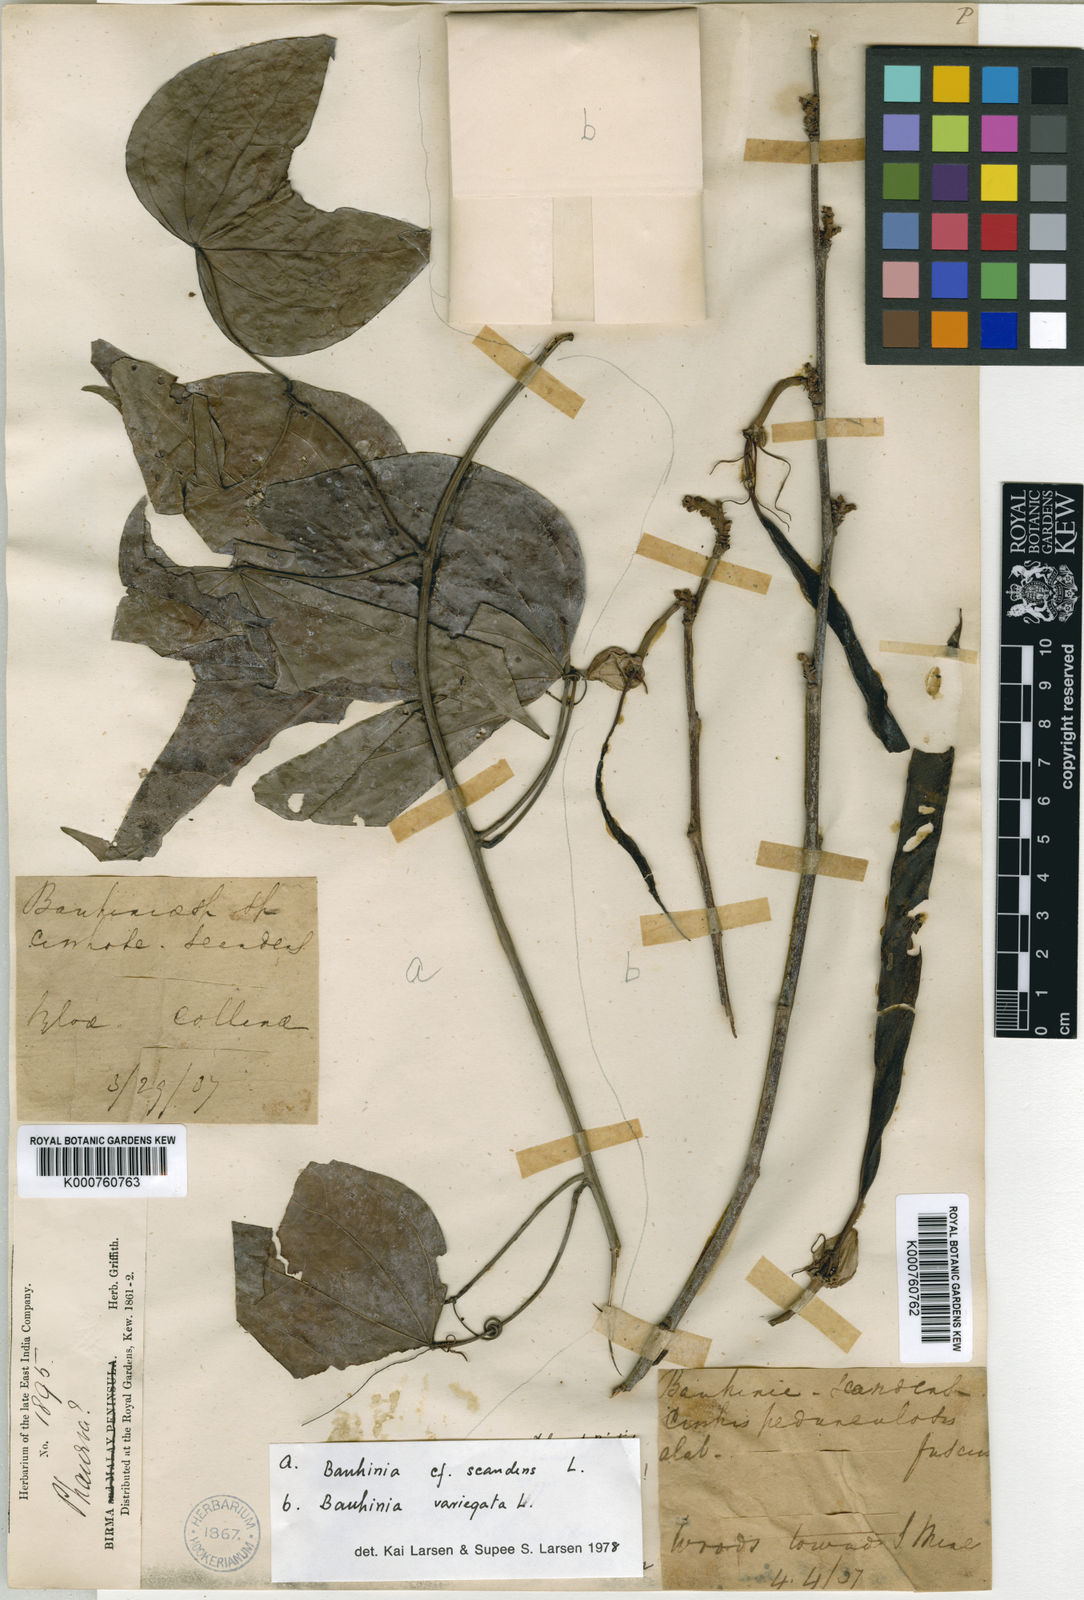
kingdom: Plantae
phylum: Tracheophyta
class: Magnoliopsida
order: Fabales
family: Fabaceae
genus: Phanera
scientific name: Phanera scandens
